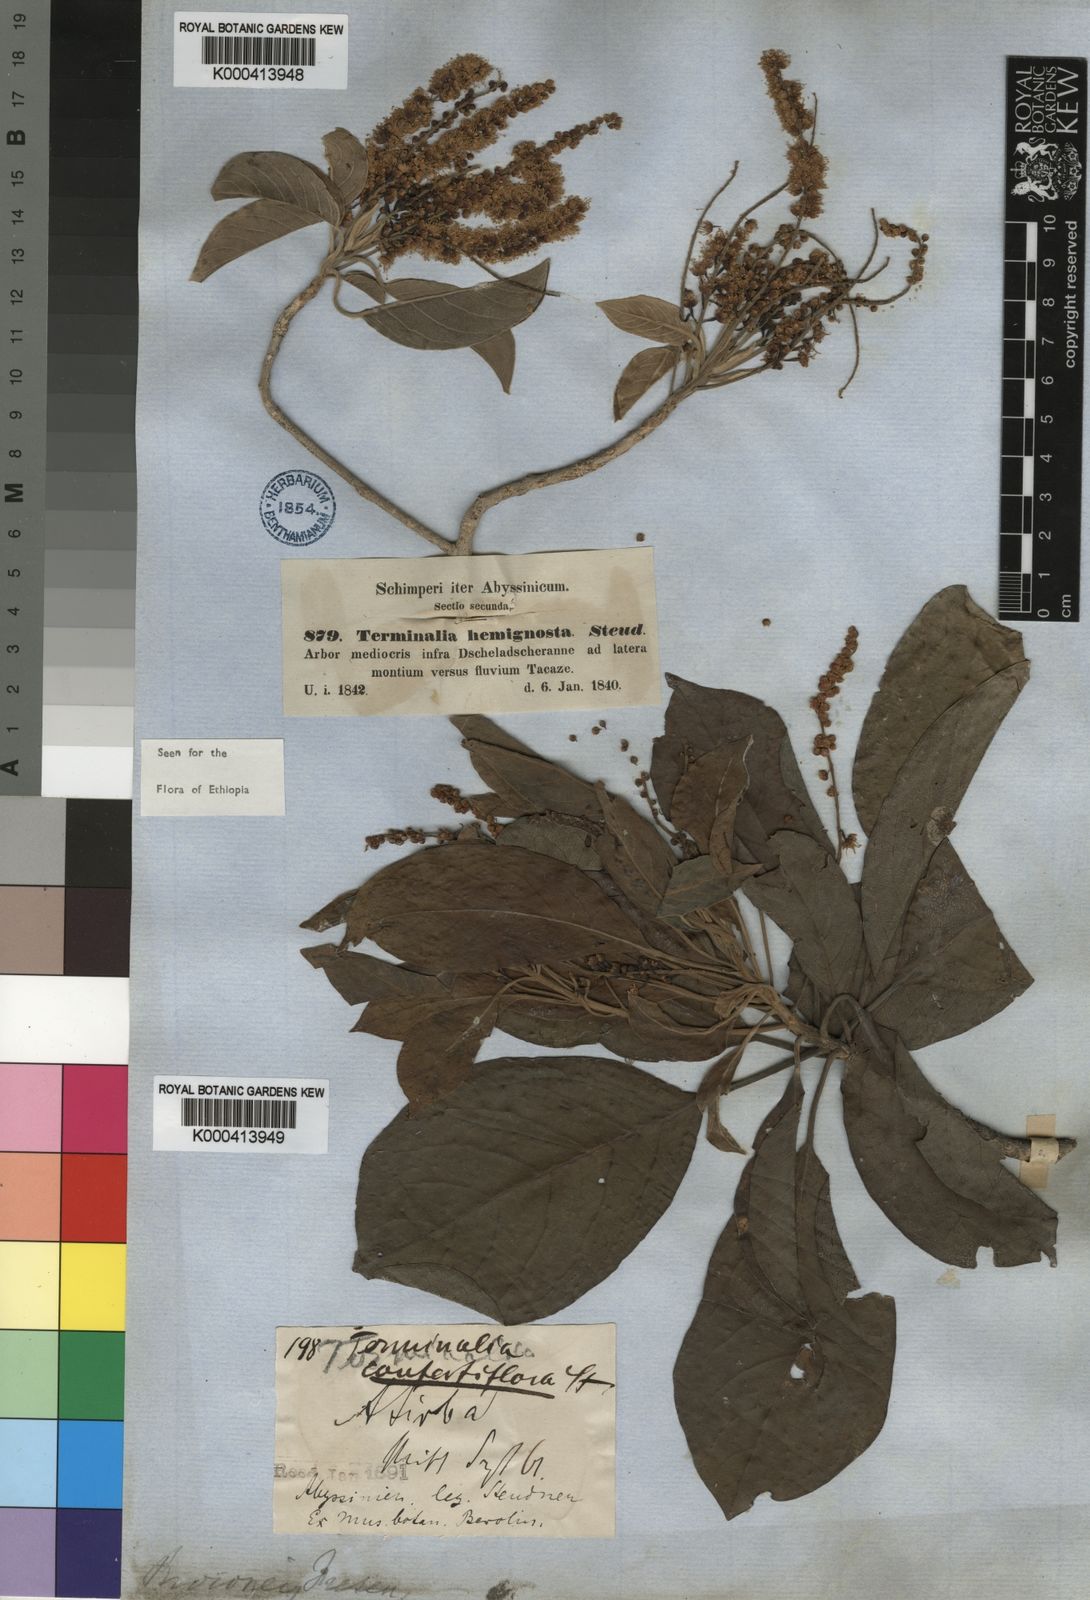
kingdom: Plantae
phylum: Tracheophyta
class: Magnoliopsida
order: Myrtales
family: Combretaceae
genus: Terminalia
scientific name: Terminalia brownii
